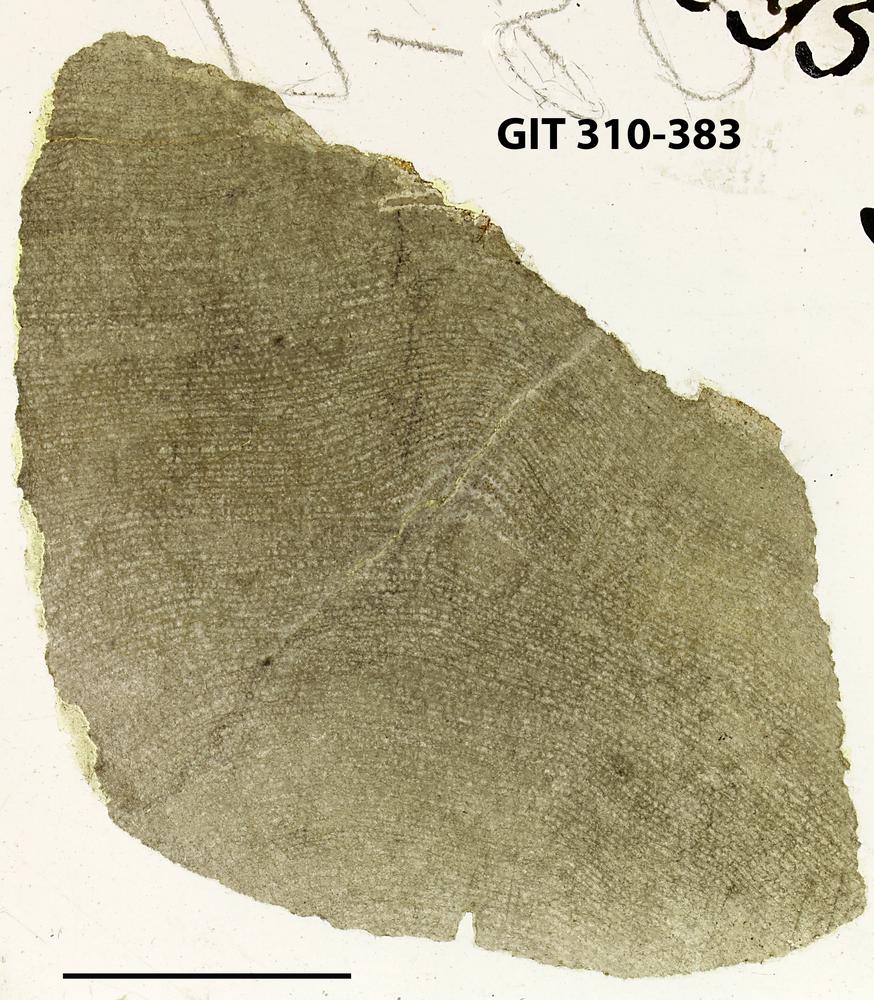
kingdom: Animalia
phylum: Porifera
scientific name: Porifera
